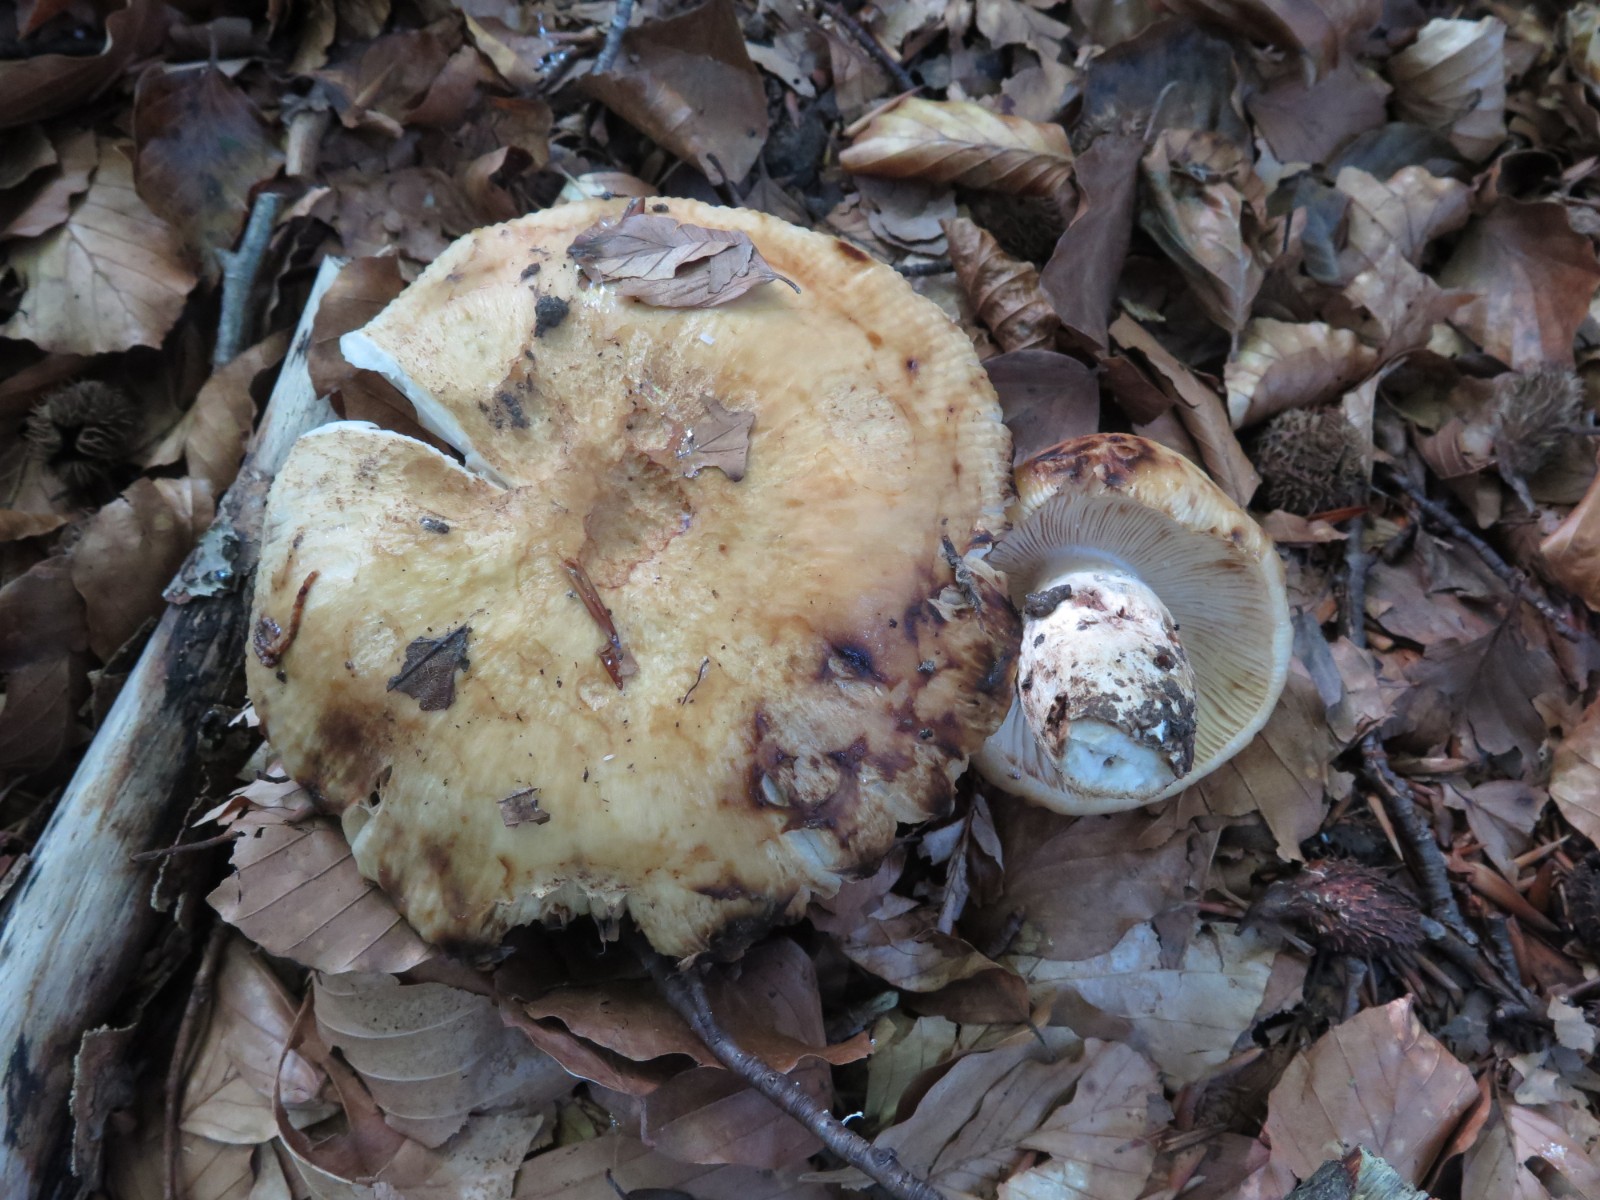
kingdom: Fungi
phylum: Basidiomycota
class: Agaricomycetes
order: Russulales
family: Russulaceae
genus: Russula
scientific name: Russula fellea
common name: galde-skørhat
